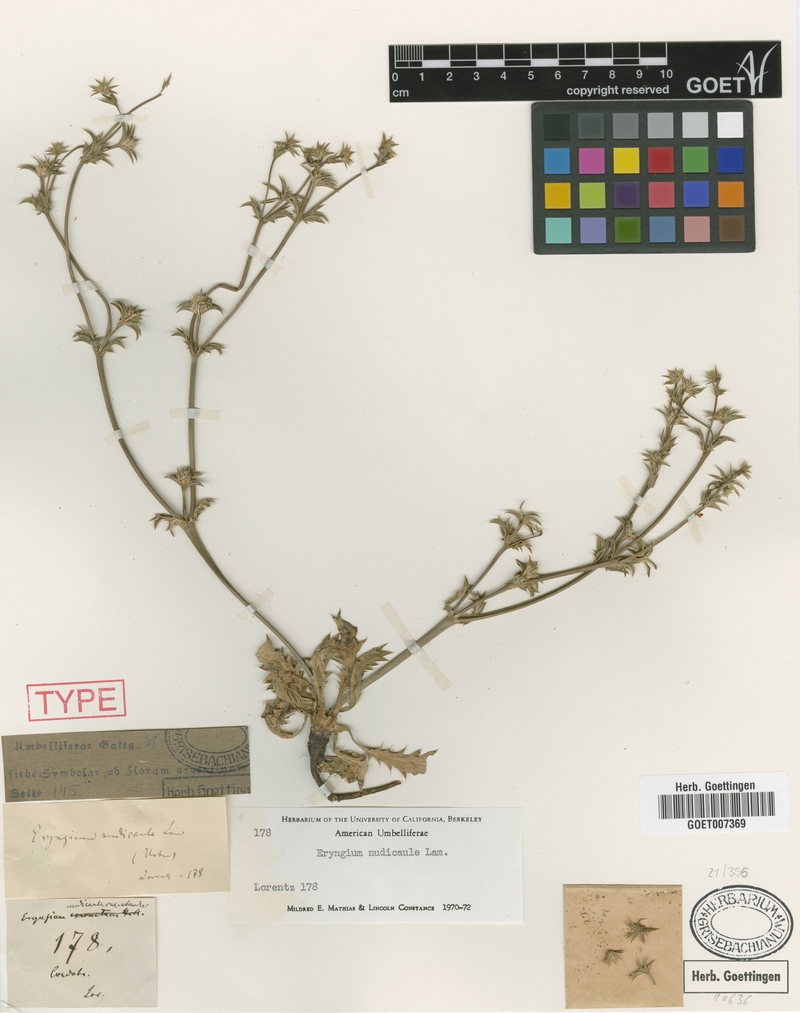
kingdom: Plantae
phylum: Tracheophyta
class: Magnoliopsida
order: Apiales
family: Apiaceae
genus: Eryngium
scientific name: Eryngium nudicaule
